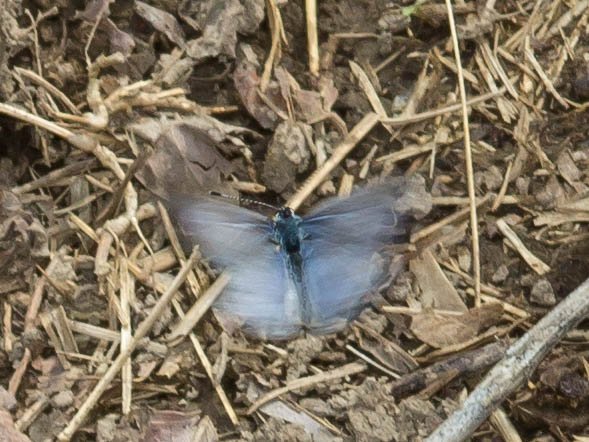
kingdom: Animalia
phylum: Arthropoda
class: Insecta
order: Lepidoptera
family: Lycaenidae
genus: Cyaniris
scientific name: Cyaniris neglecta
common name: Summer Azure
